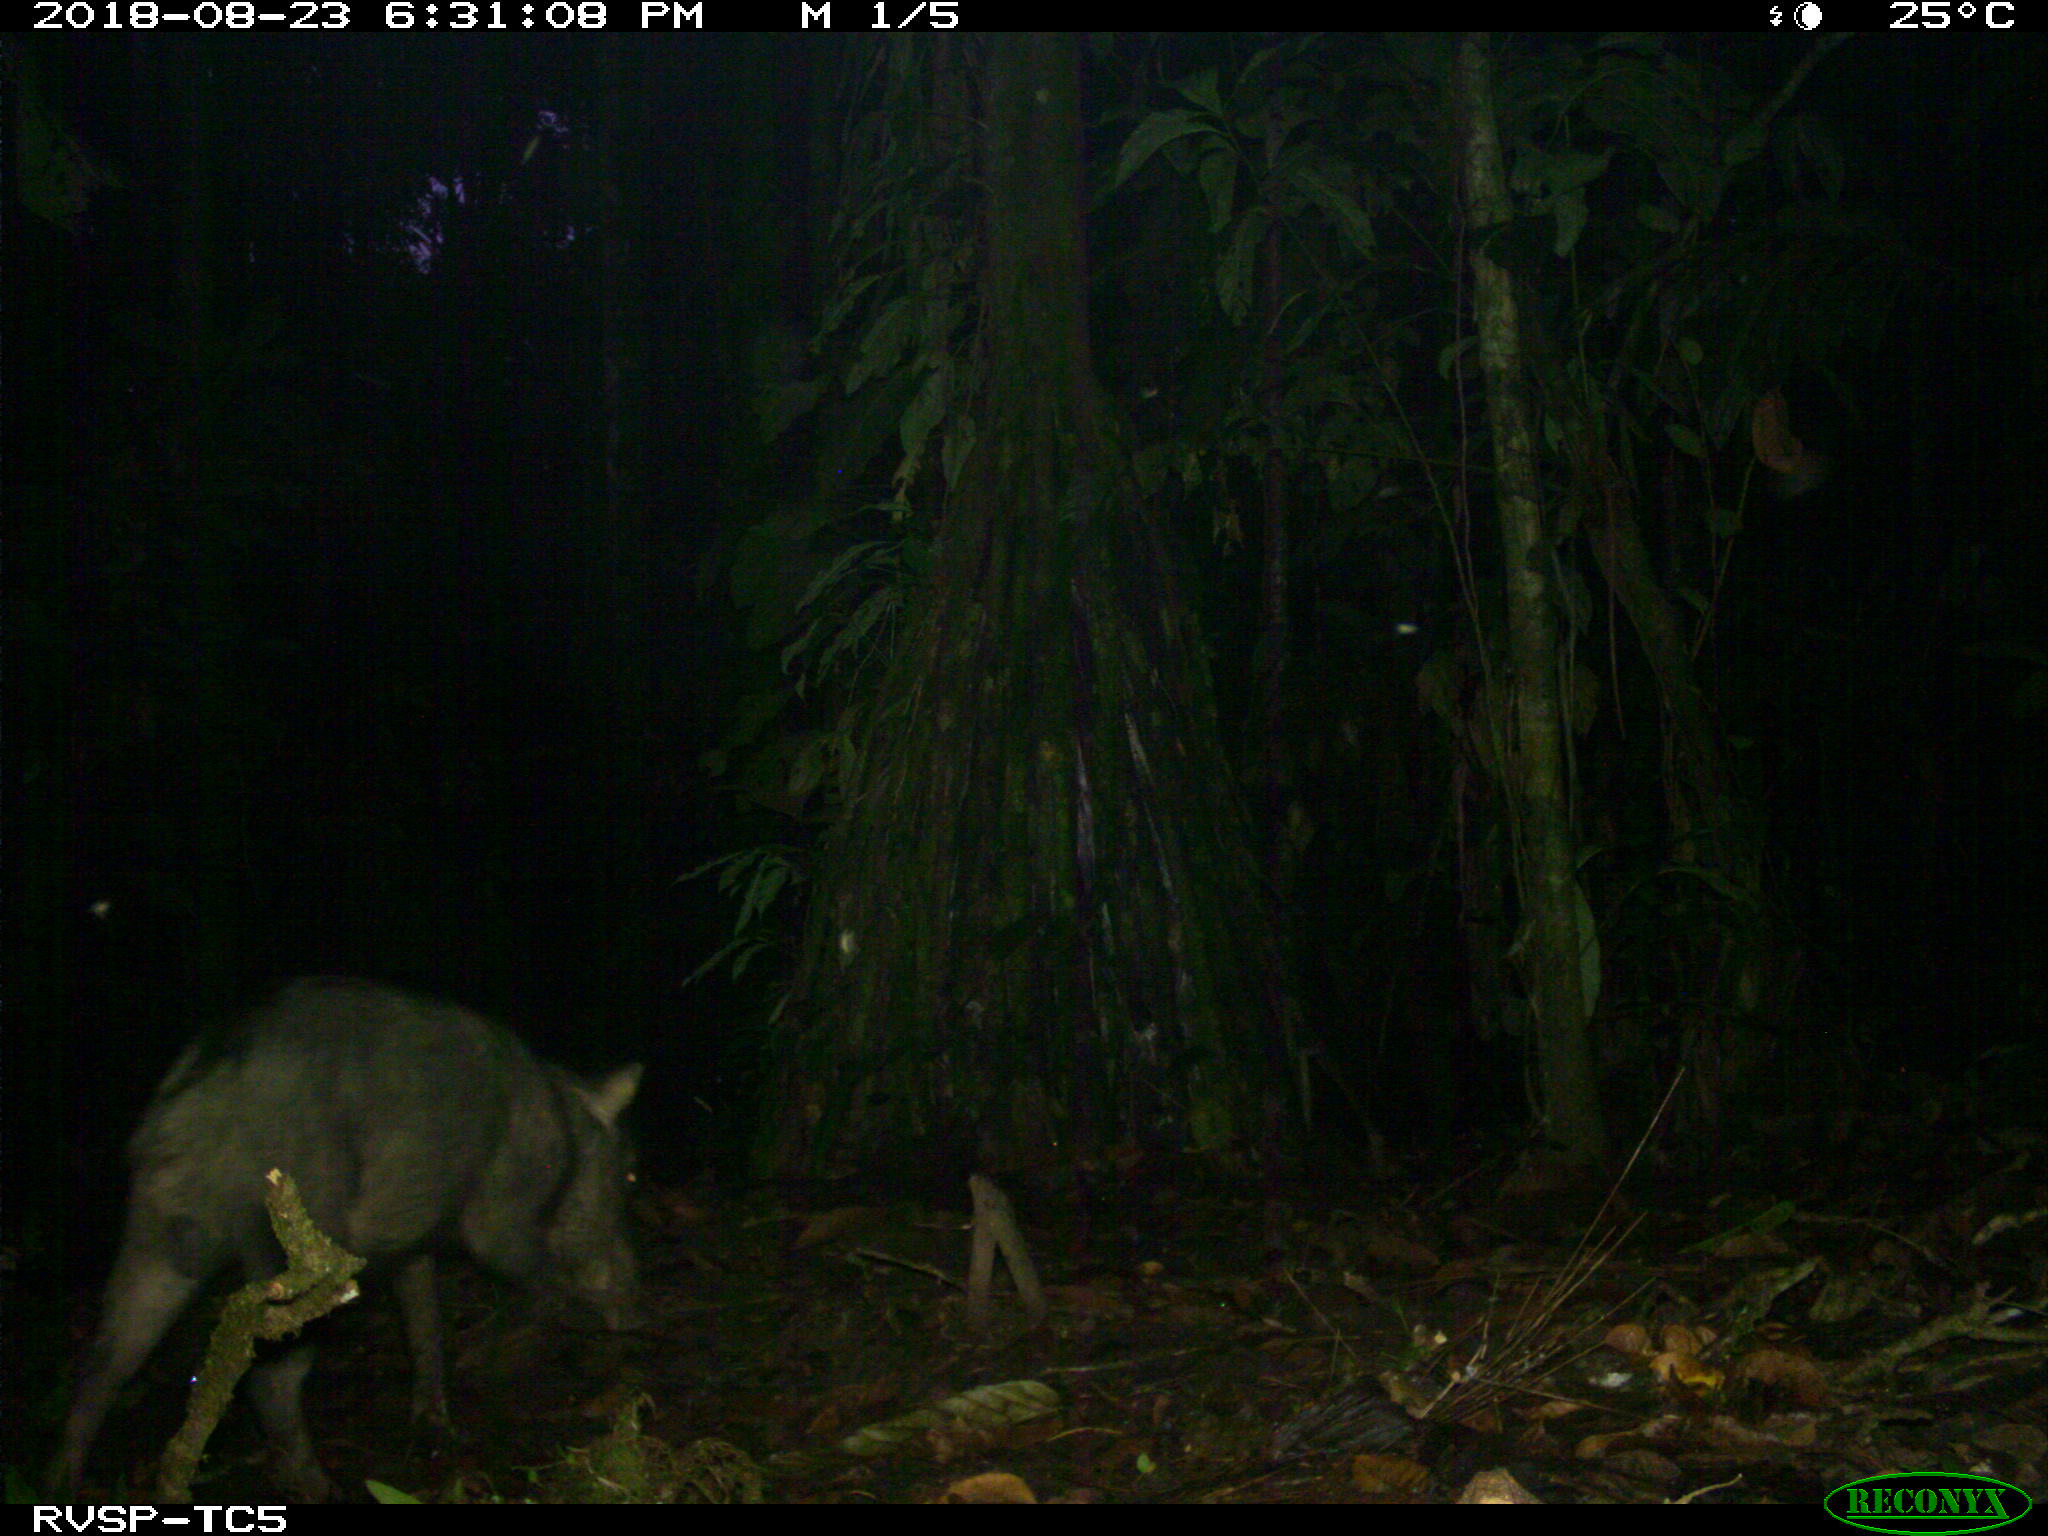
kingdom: Animalia
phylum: Chordata
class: Mammalia
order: Artiodactyla
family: Tayassuidae
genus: Tayassu
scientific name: Tayassu pecari
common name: White-lipped peccary
